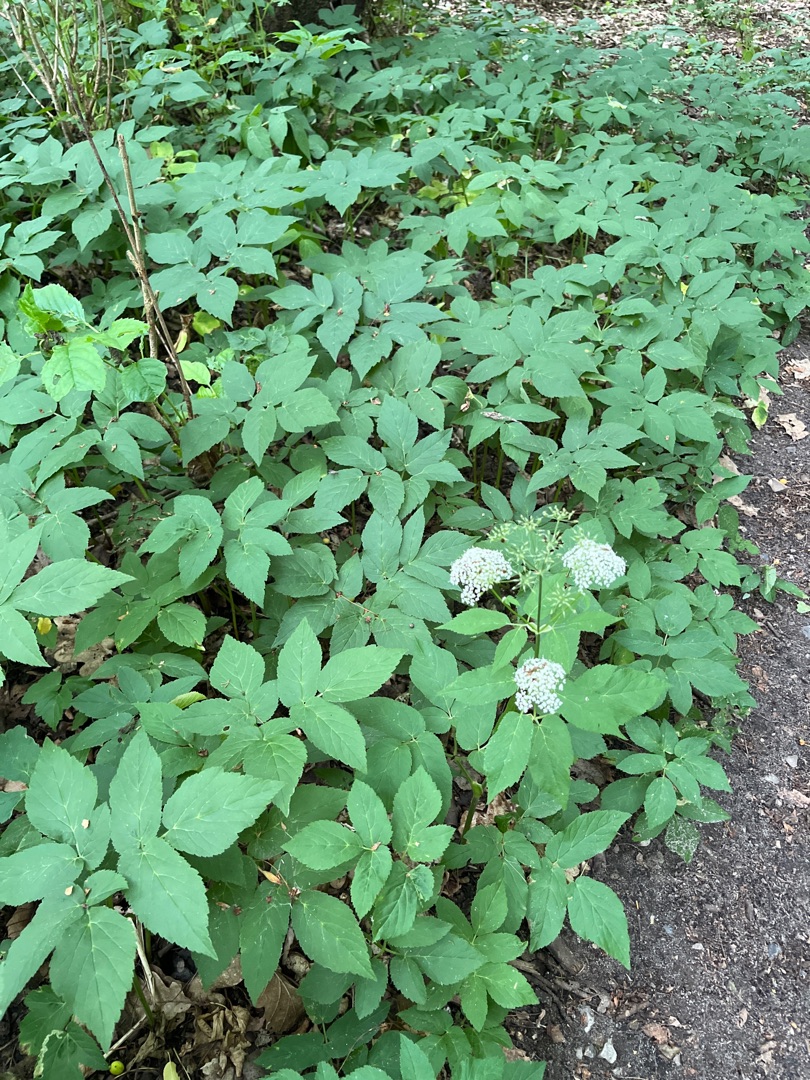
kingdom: Plantae
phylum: Tracheophyta
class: Magnoliopsida
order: Apiales
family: Apiaceae
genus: Aegopodium
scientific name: Aegopodium podagraria
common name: Skvalderkål
